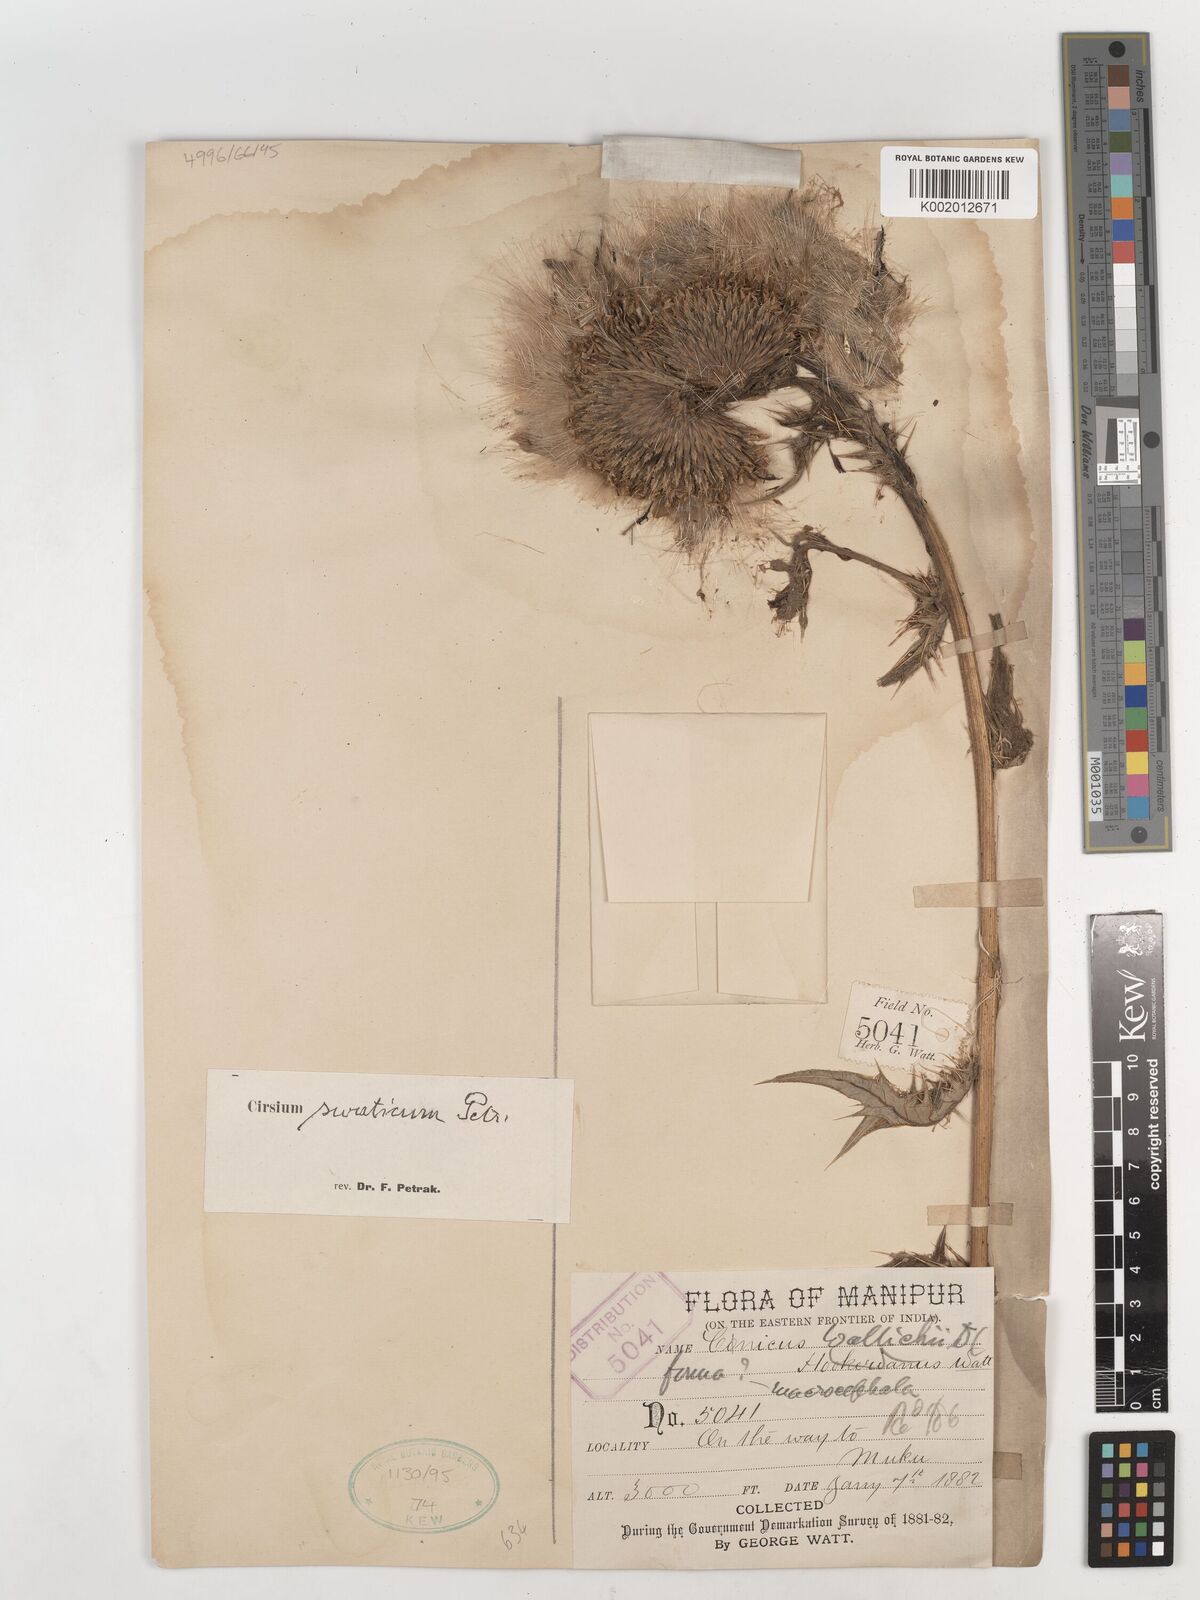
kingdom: Plantae
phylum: Tracheophyta
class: Magnoliopsida
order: Asterales
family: Asteraceae
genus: Cirsium
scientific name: Cirsium swaticum
